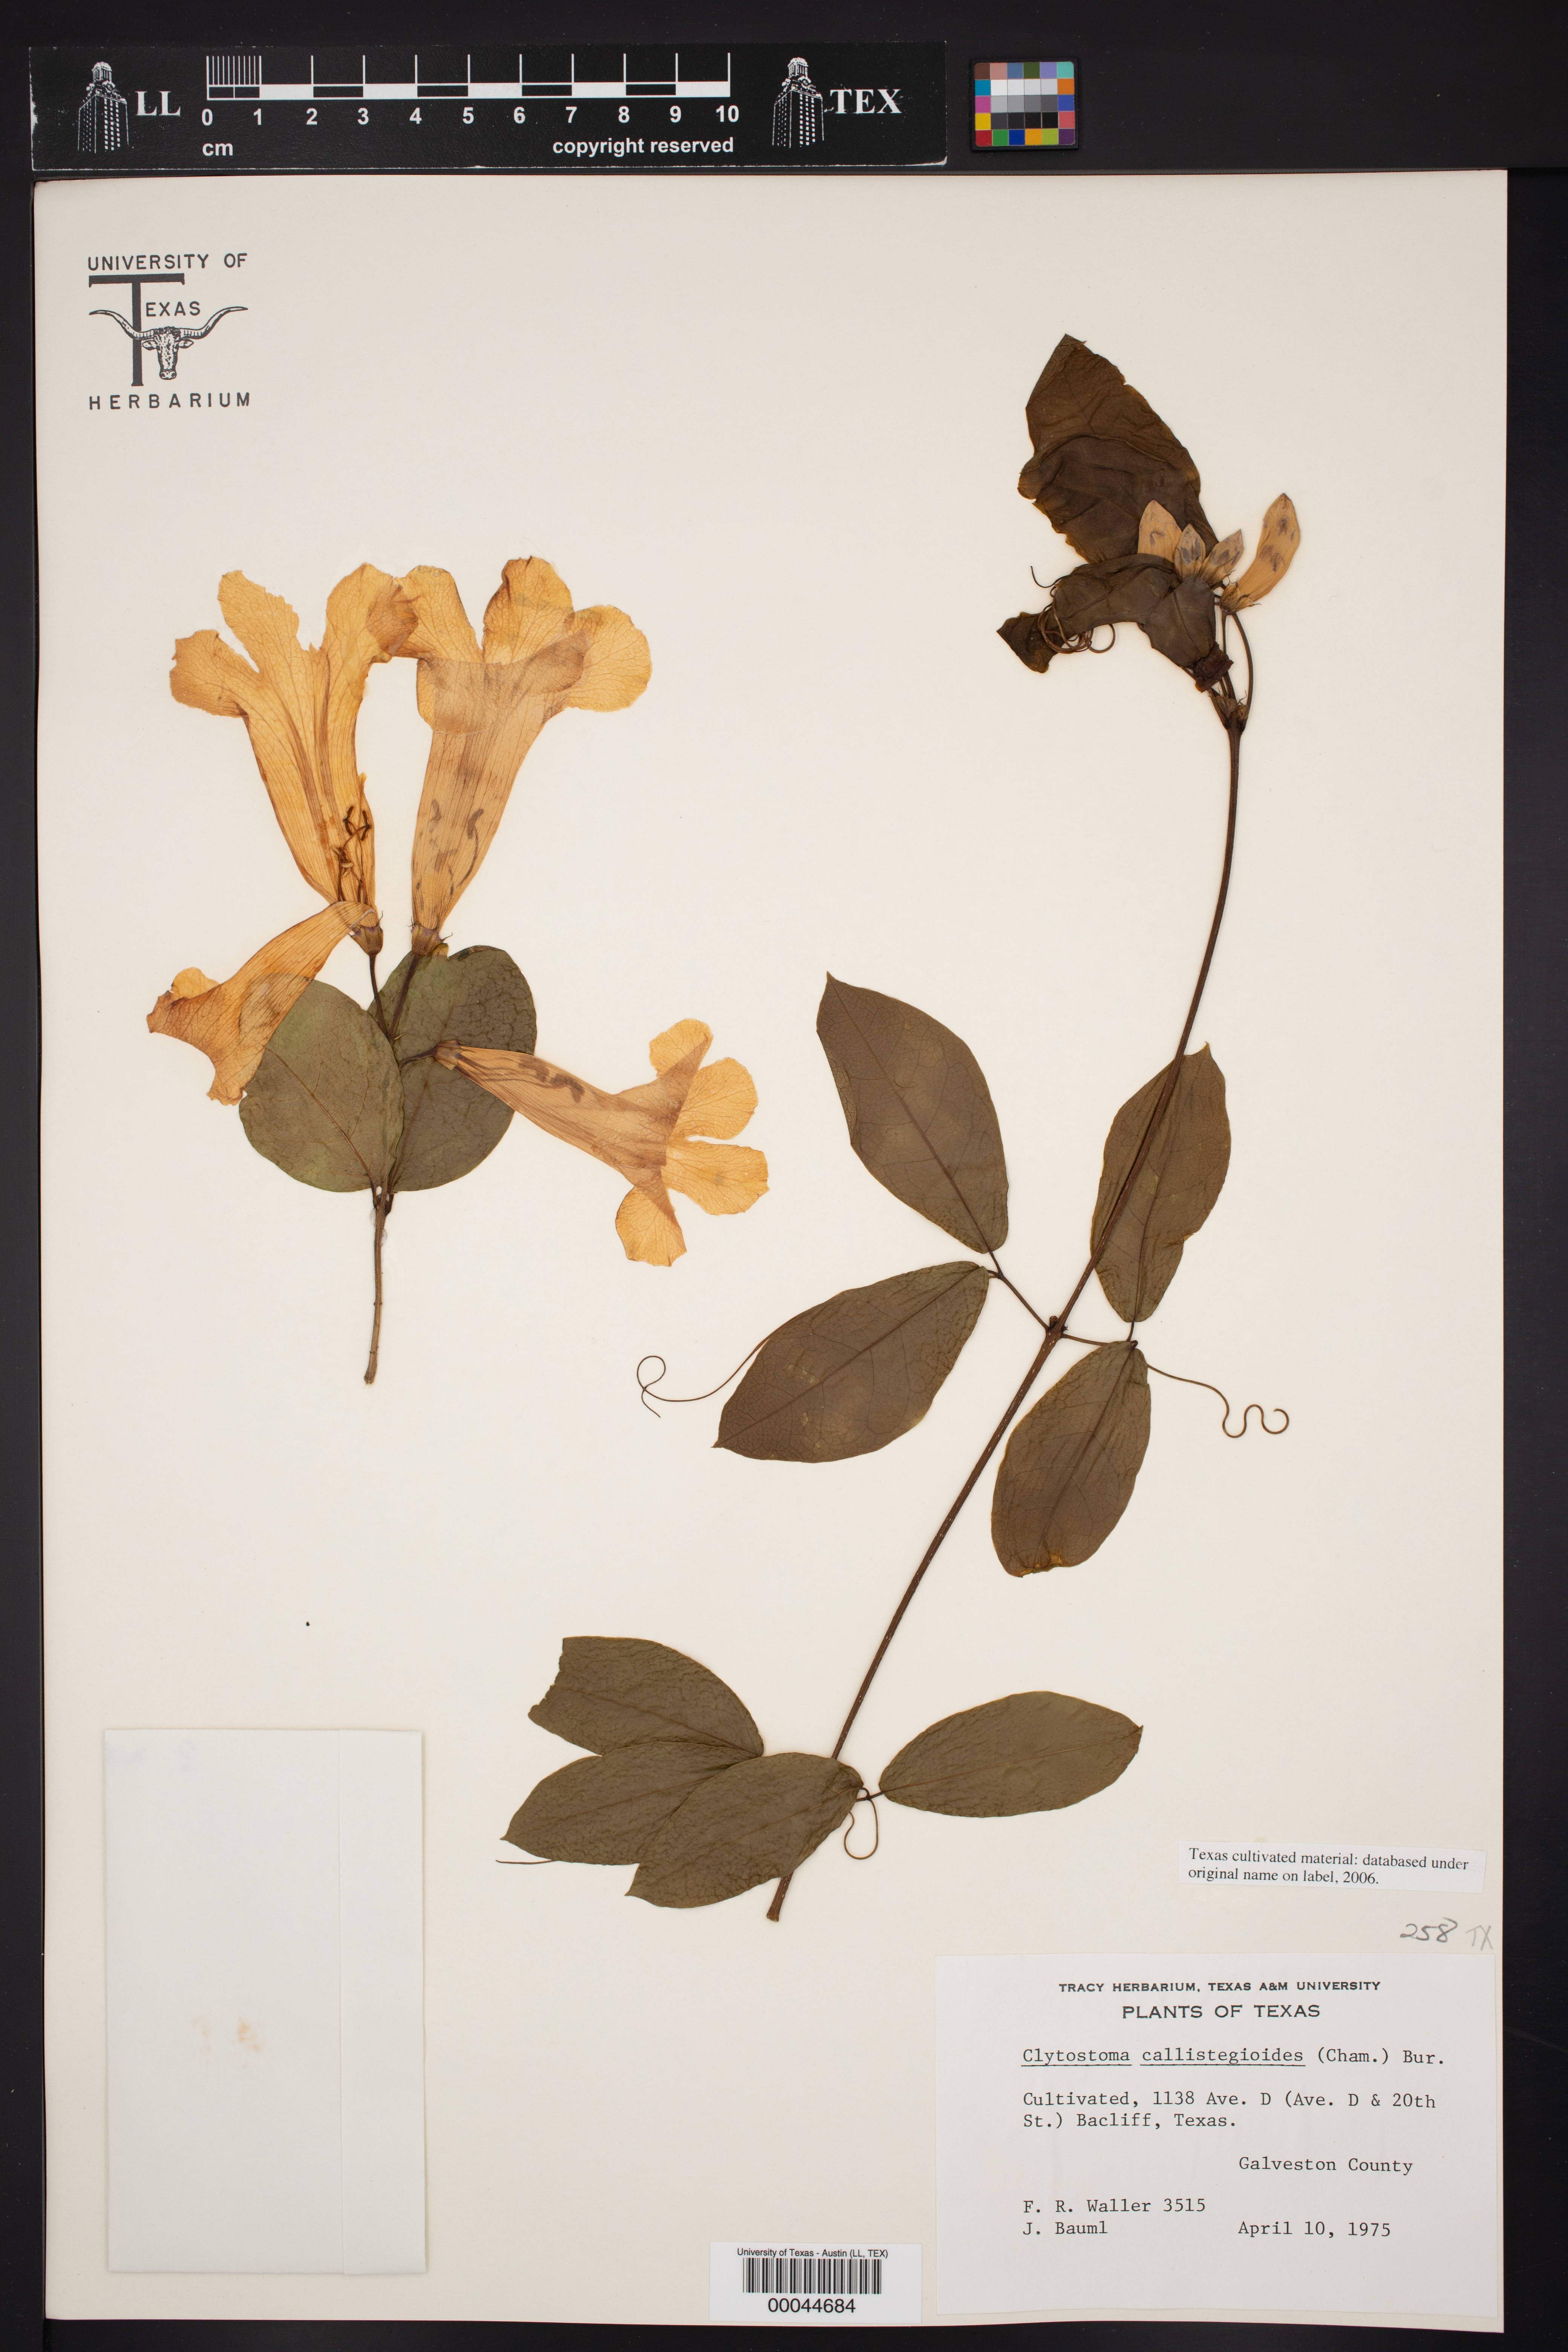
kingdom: Plantae
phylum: Tracheophyta
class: Magnoliopsida
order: Lamiales
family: Bignoniaceae
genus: Bignonia
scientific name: Bignonia callistegioides
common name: Argentine trumpetvine
